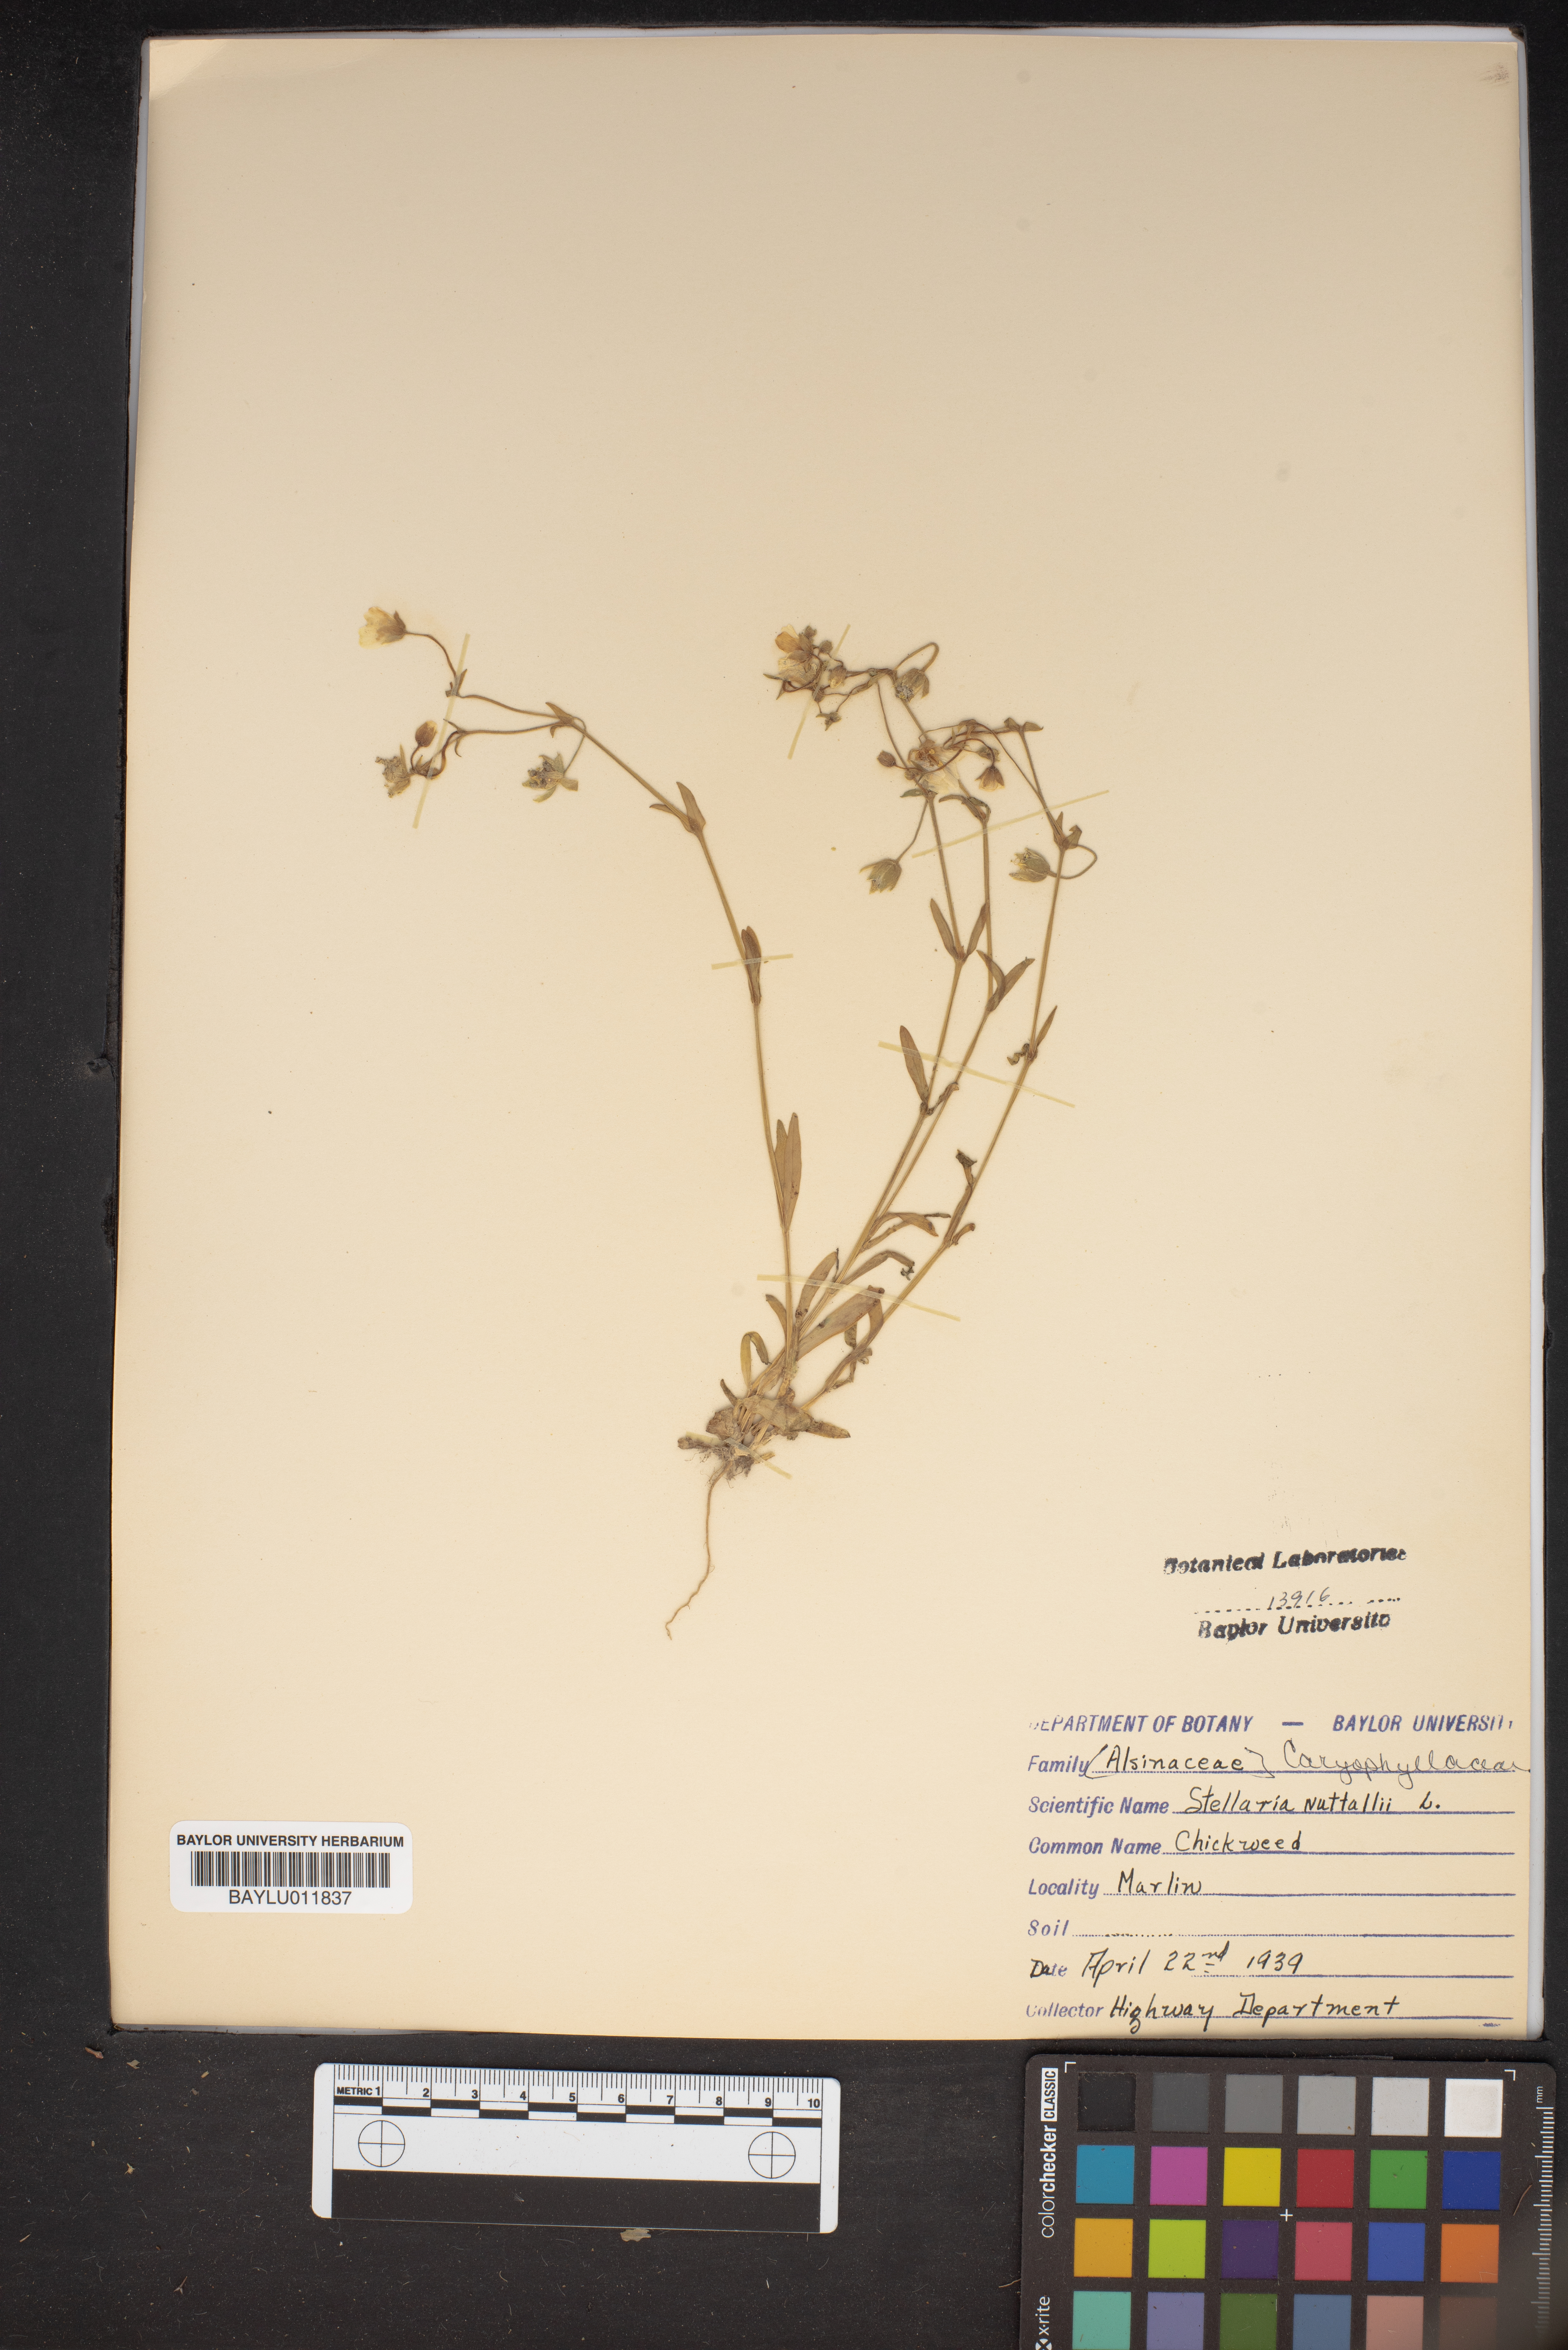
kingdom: Plantae
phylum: Tracheophyta
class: Magnoliopsida
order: Caryophyllales
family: Caryophyllaceae
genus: Geocarpon
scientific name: Geocarpon nuttallii
